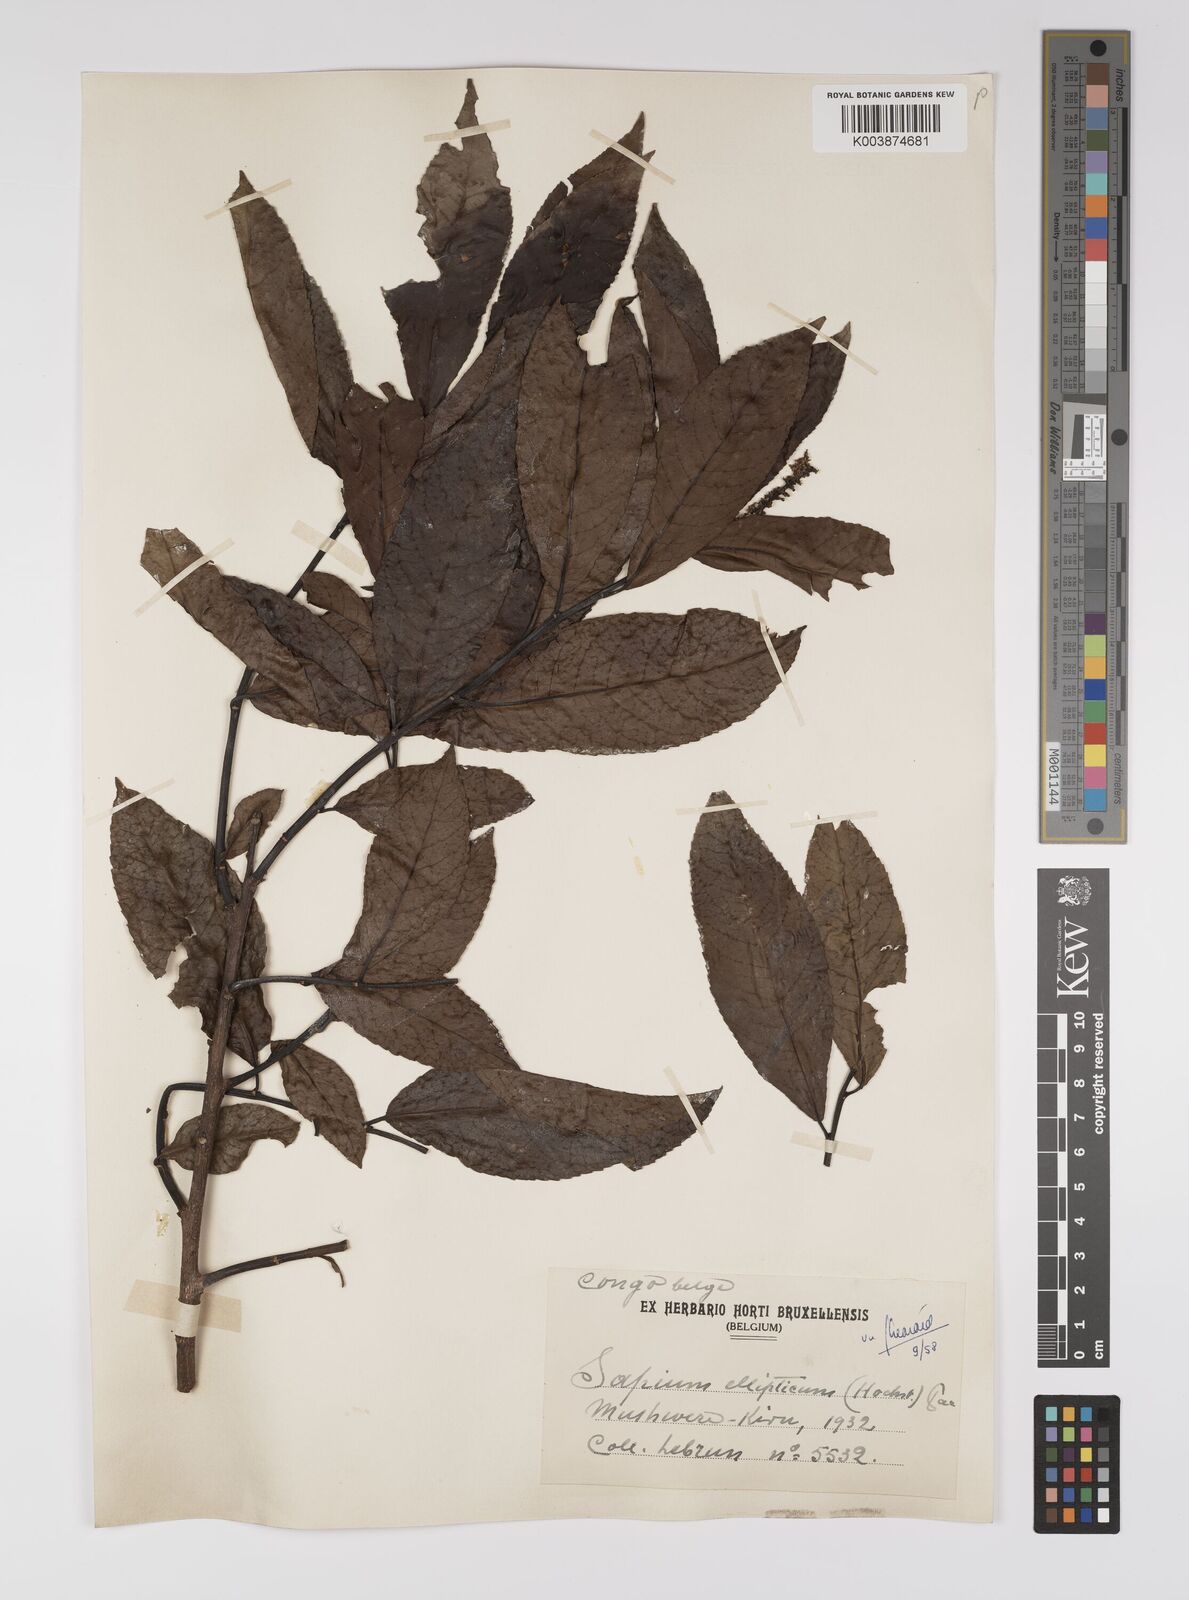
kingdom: Plantae
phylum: Tracheophyta
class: Magnoliopsida
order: Malpighiales
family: Euphorbiaceae
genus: Shirakiopsis
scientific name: Shirakiopsis elliptica
